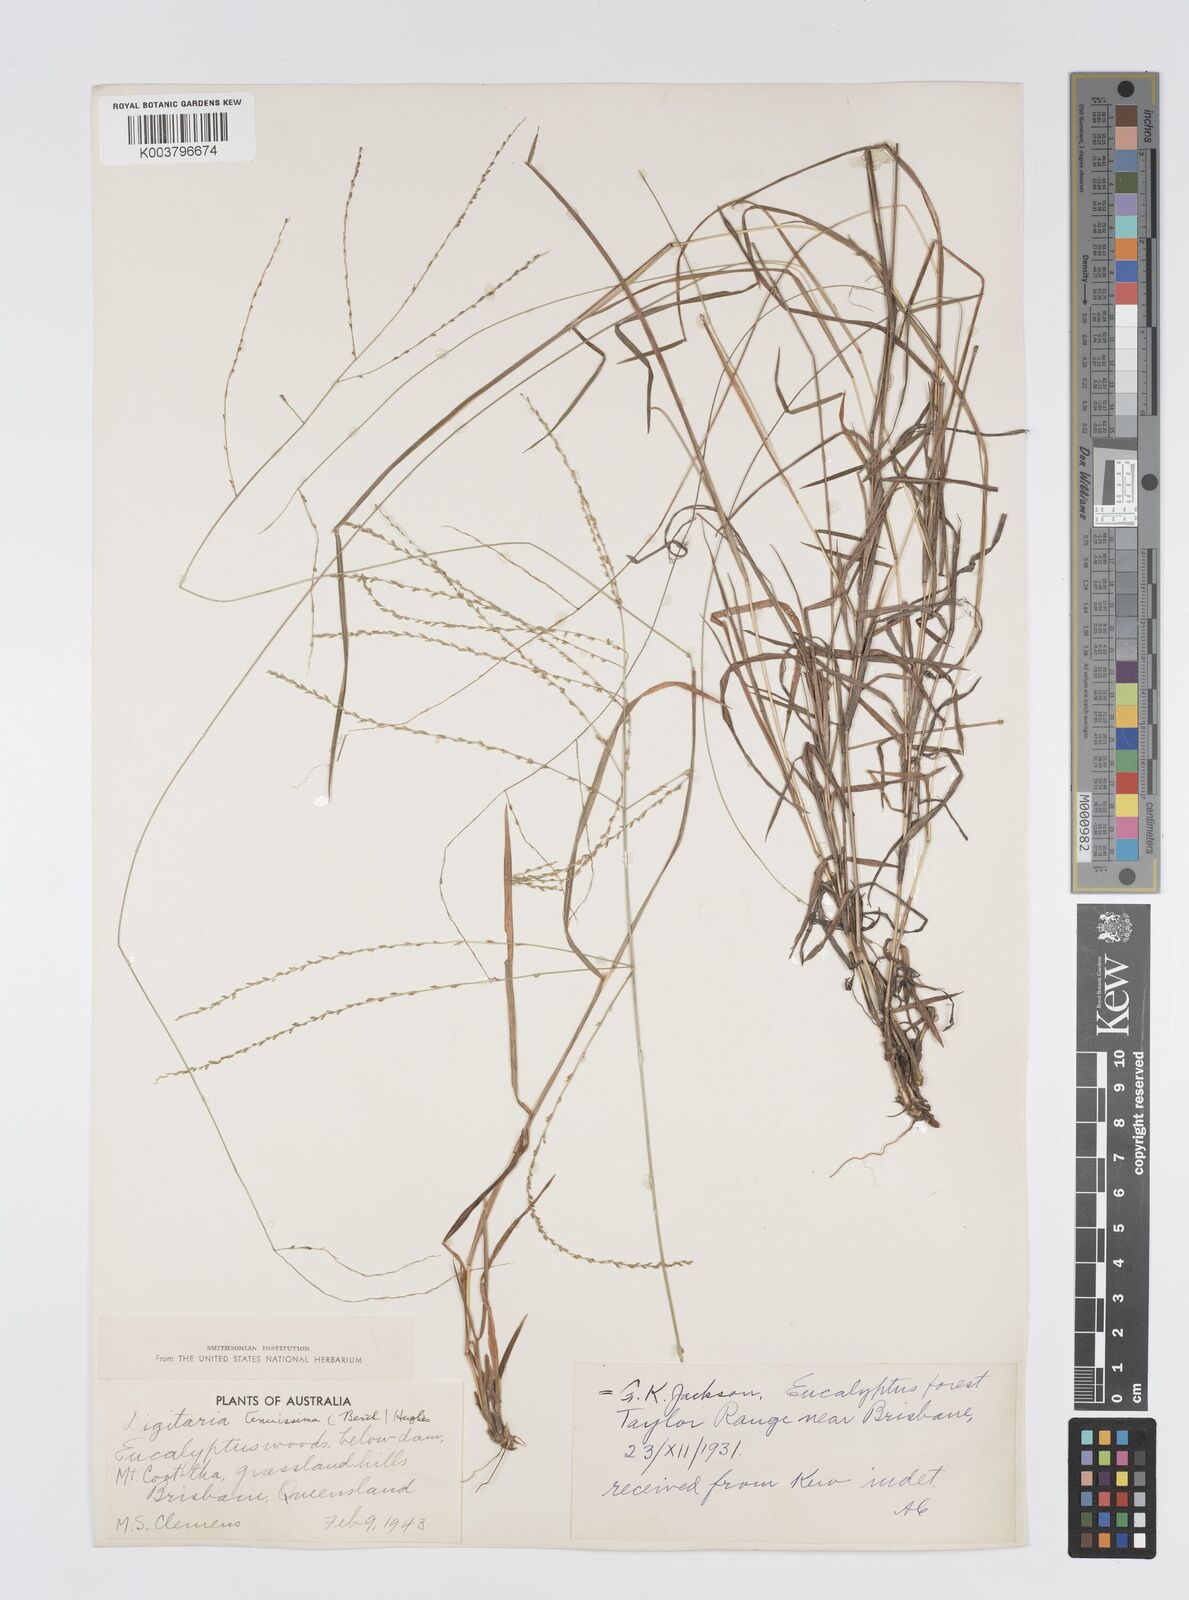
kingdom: Plantae
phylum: Tracheophyta
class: Liliopsida
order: Poales
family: Poaceae
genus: Digitaria
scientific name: Digitaria ramularis
